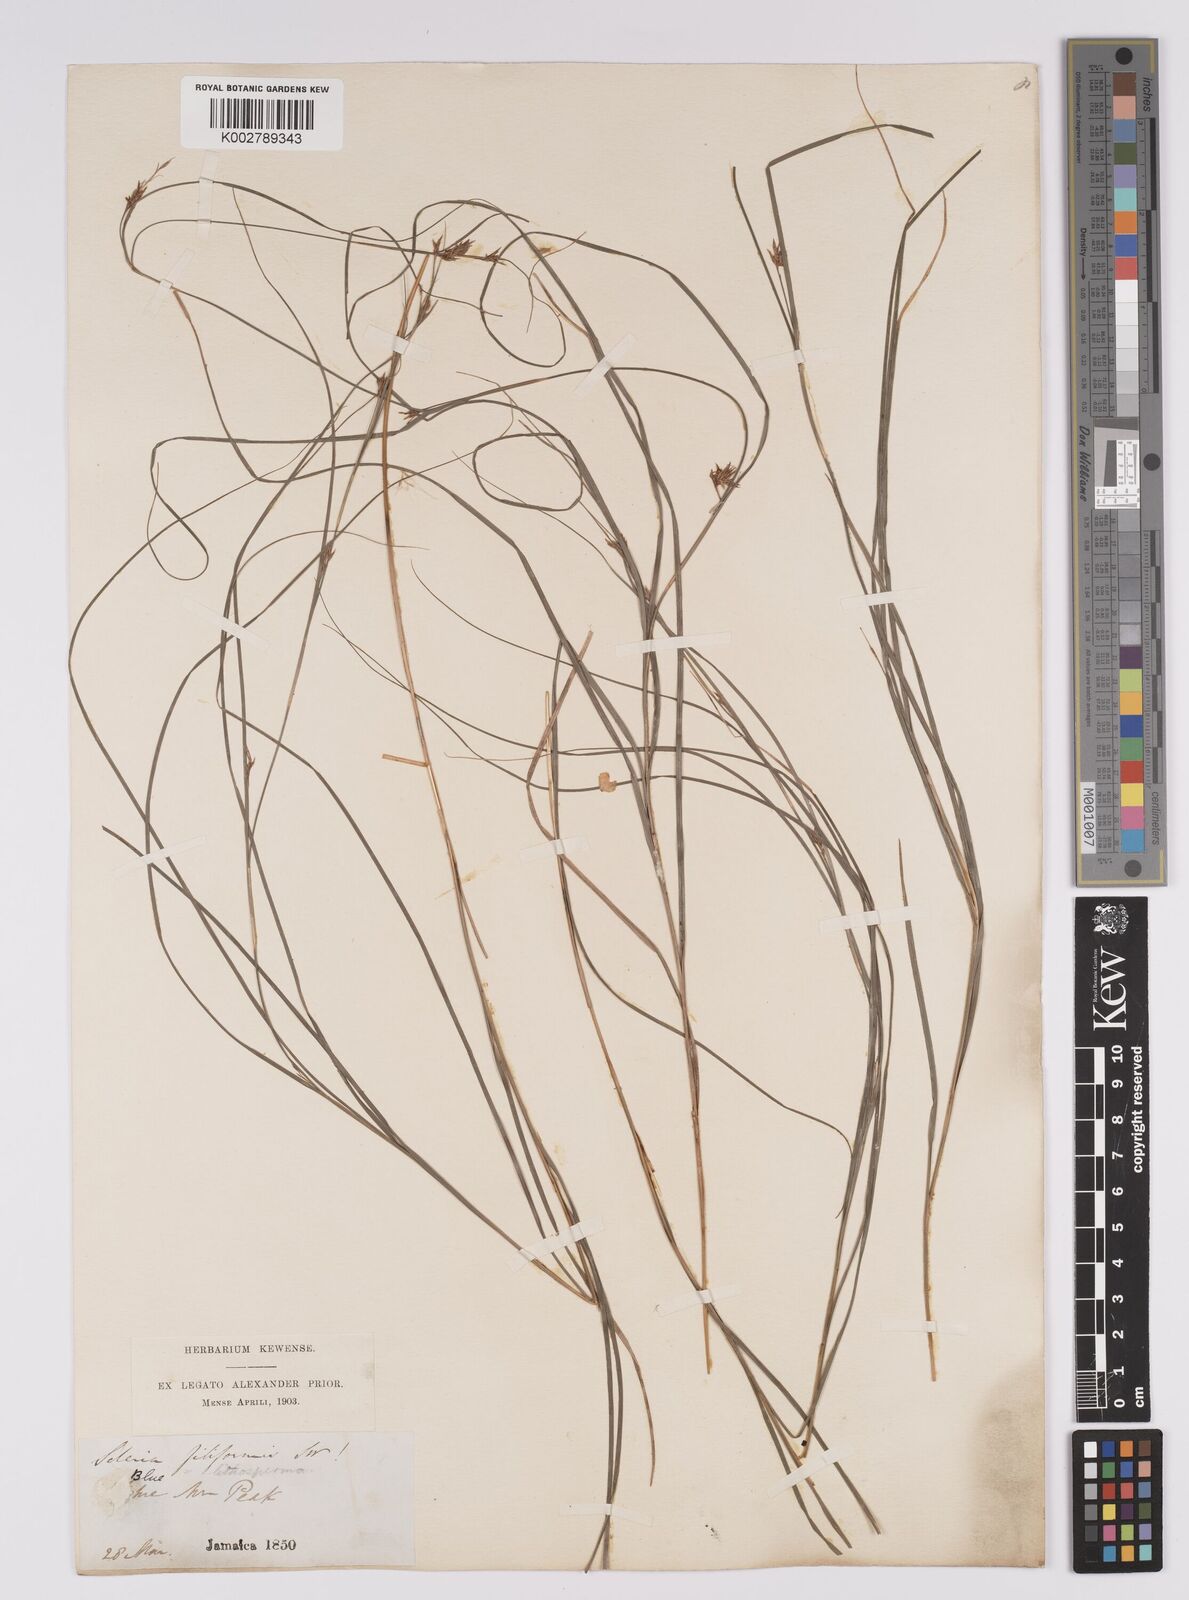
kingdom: Plantae
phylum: Tracheophyta
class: Liliopsida
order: Poales
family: Cyperaceae
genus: Scleria
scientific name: Scleria lithosperma
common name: Florida keys nut-rush
